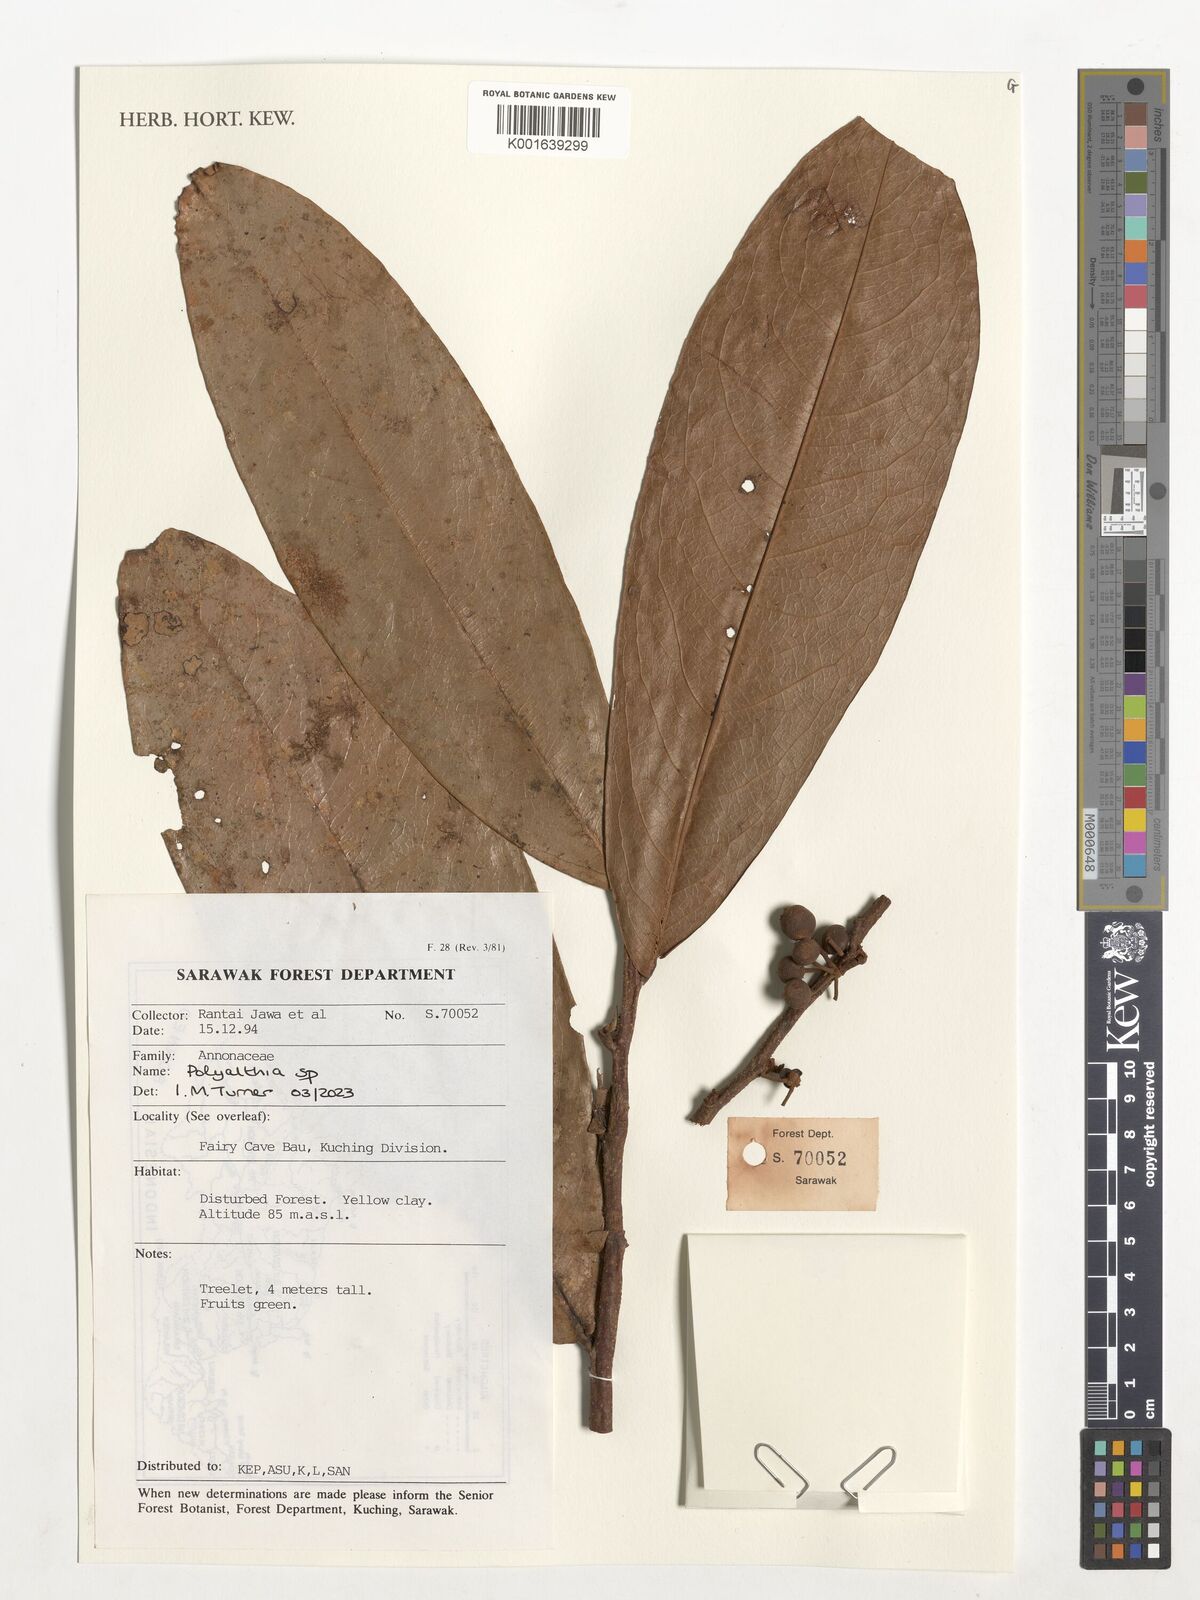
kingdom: Plantae
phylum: Tracheophyta
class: Magnoliopsida
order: Magnoliales
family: Annonaceae
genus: Polyalthia
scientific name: Polyalthia
